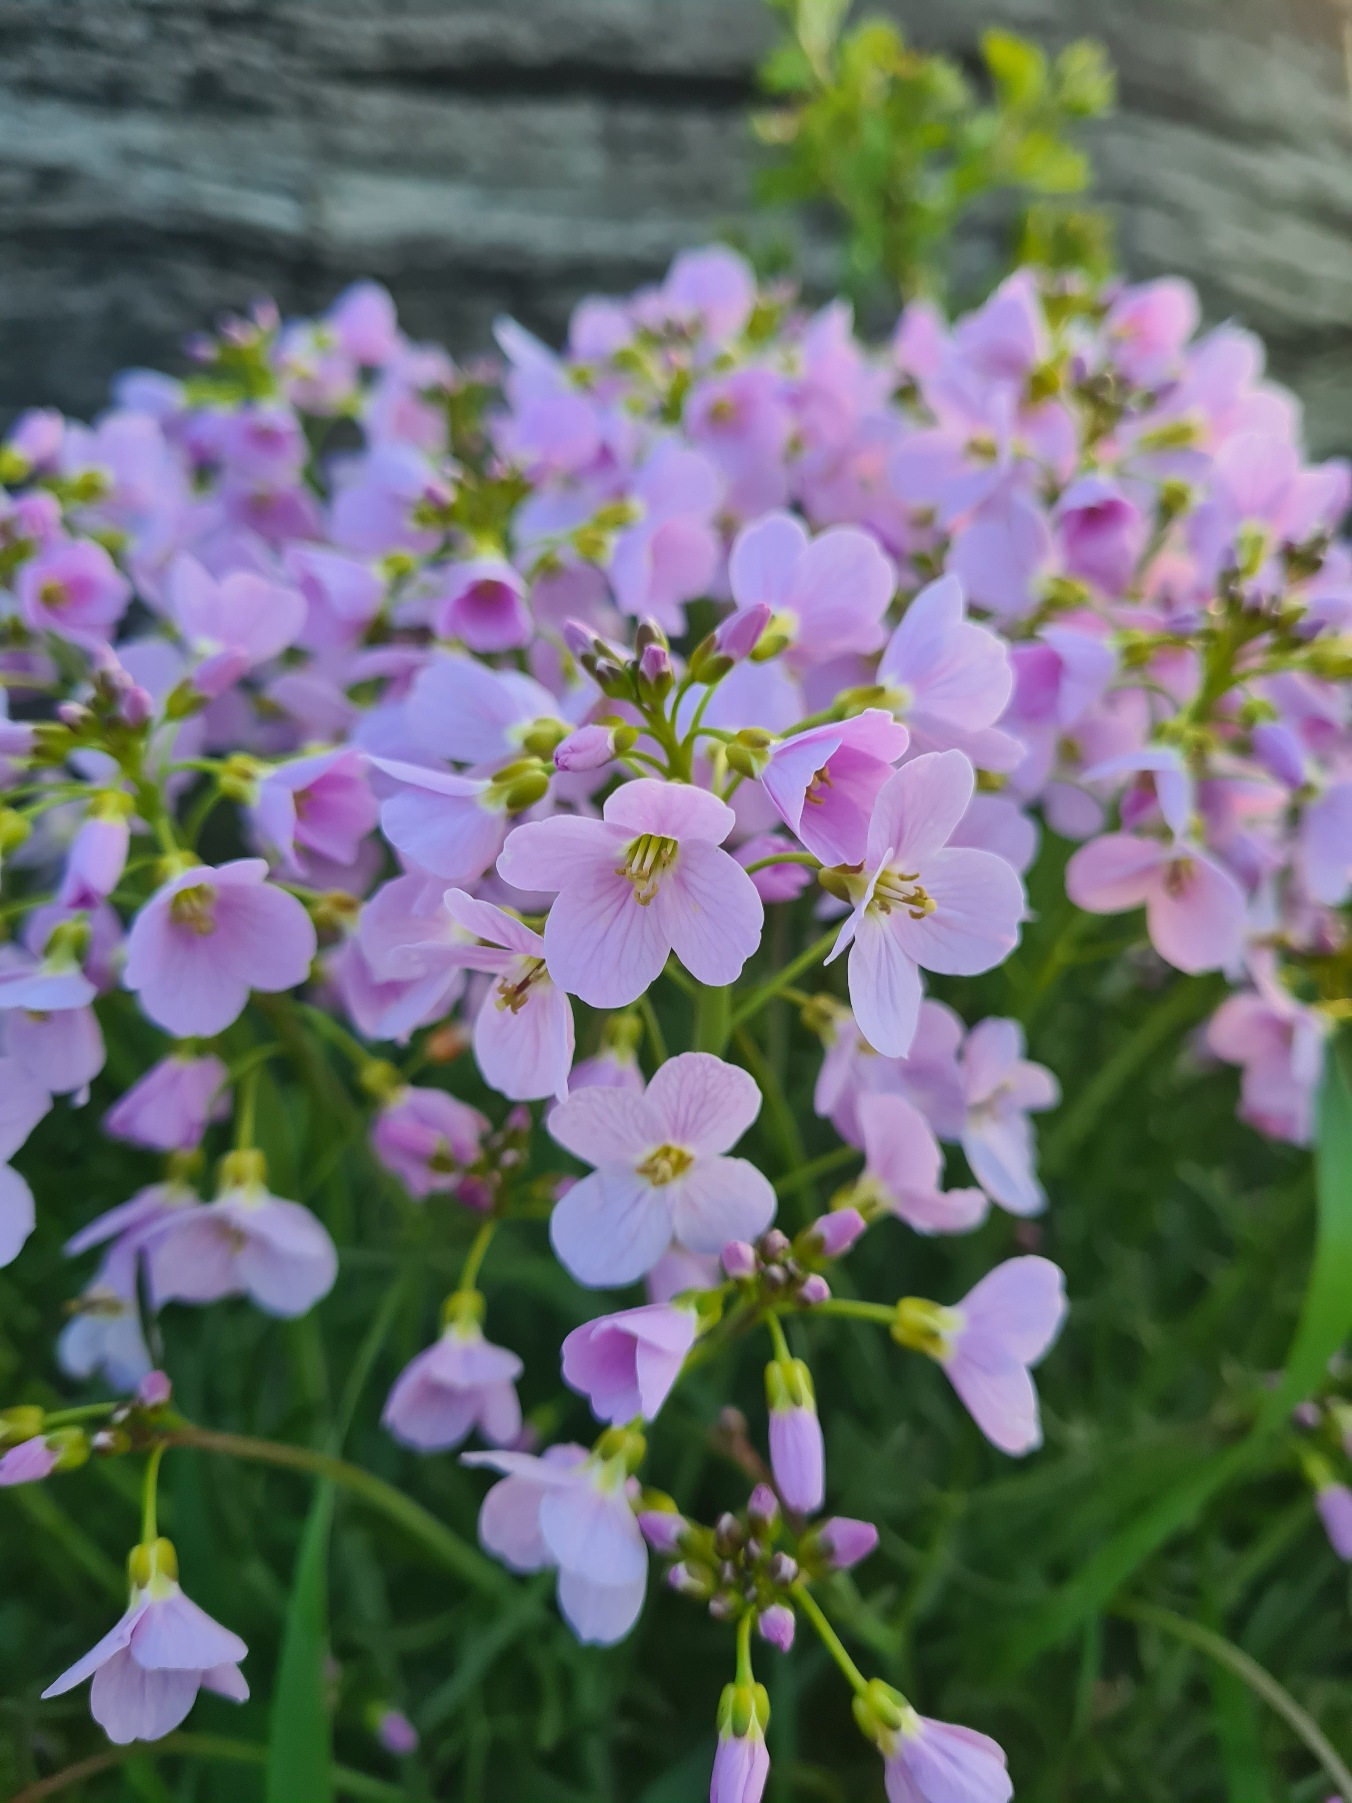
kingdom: Plantae
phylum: Tracheophyta
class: Magnoliopsida
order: Brassicales
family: Brassicaceae
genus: Cardamine
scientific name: Cardamine pratensis
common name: Engkarse
